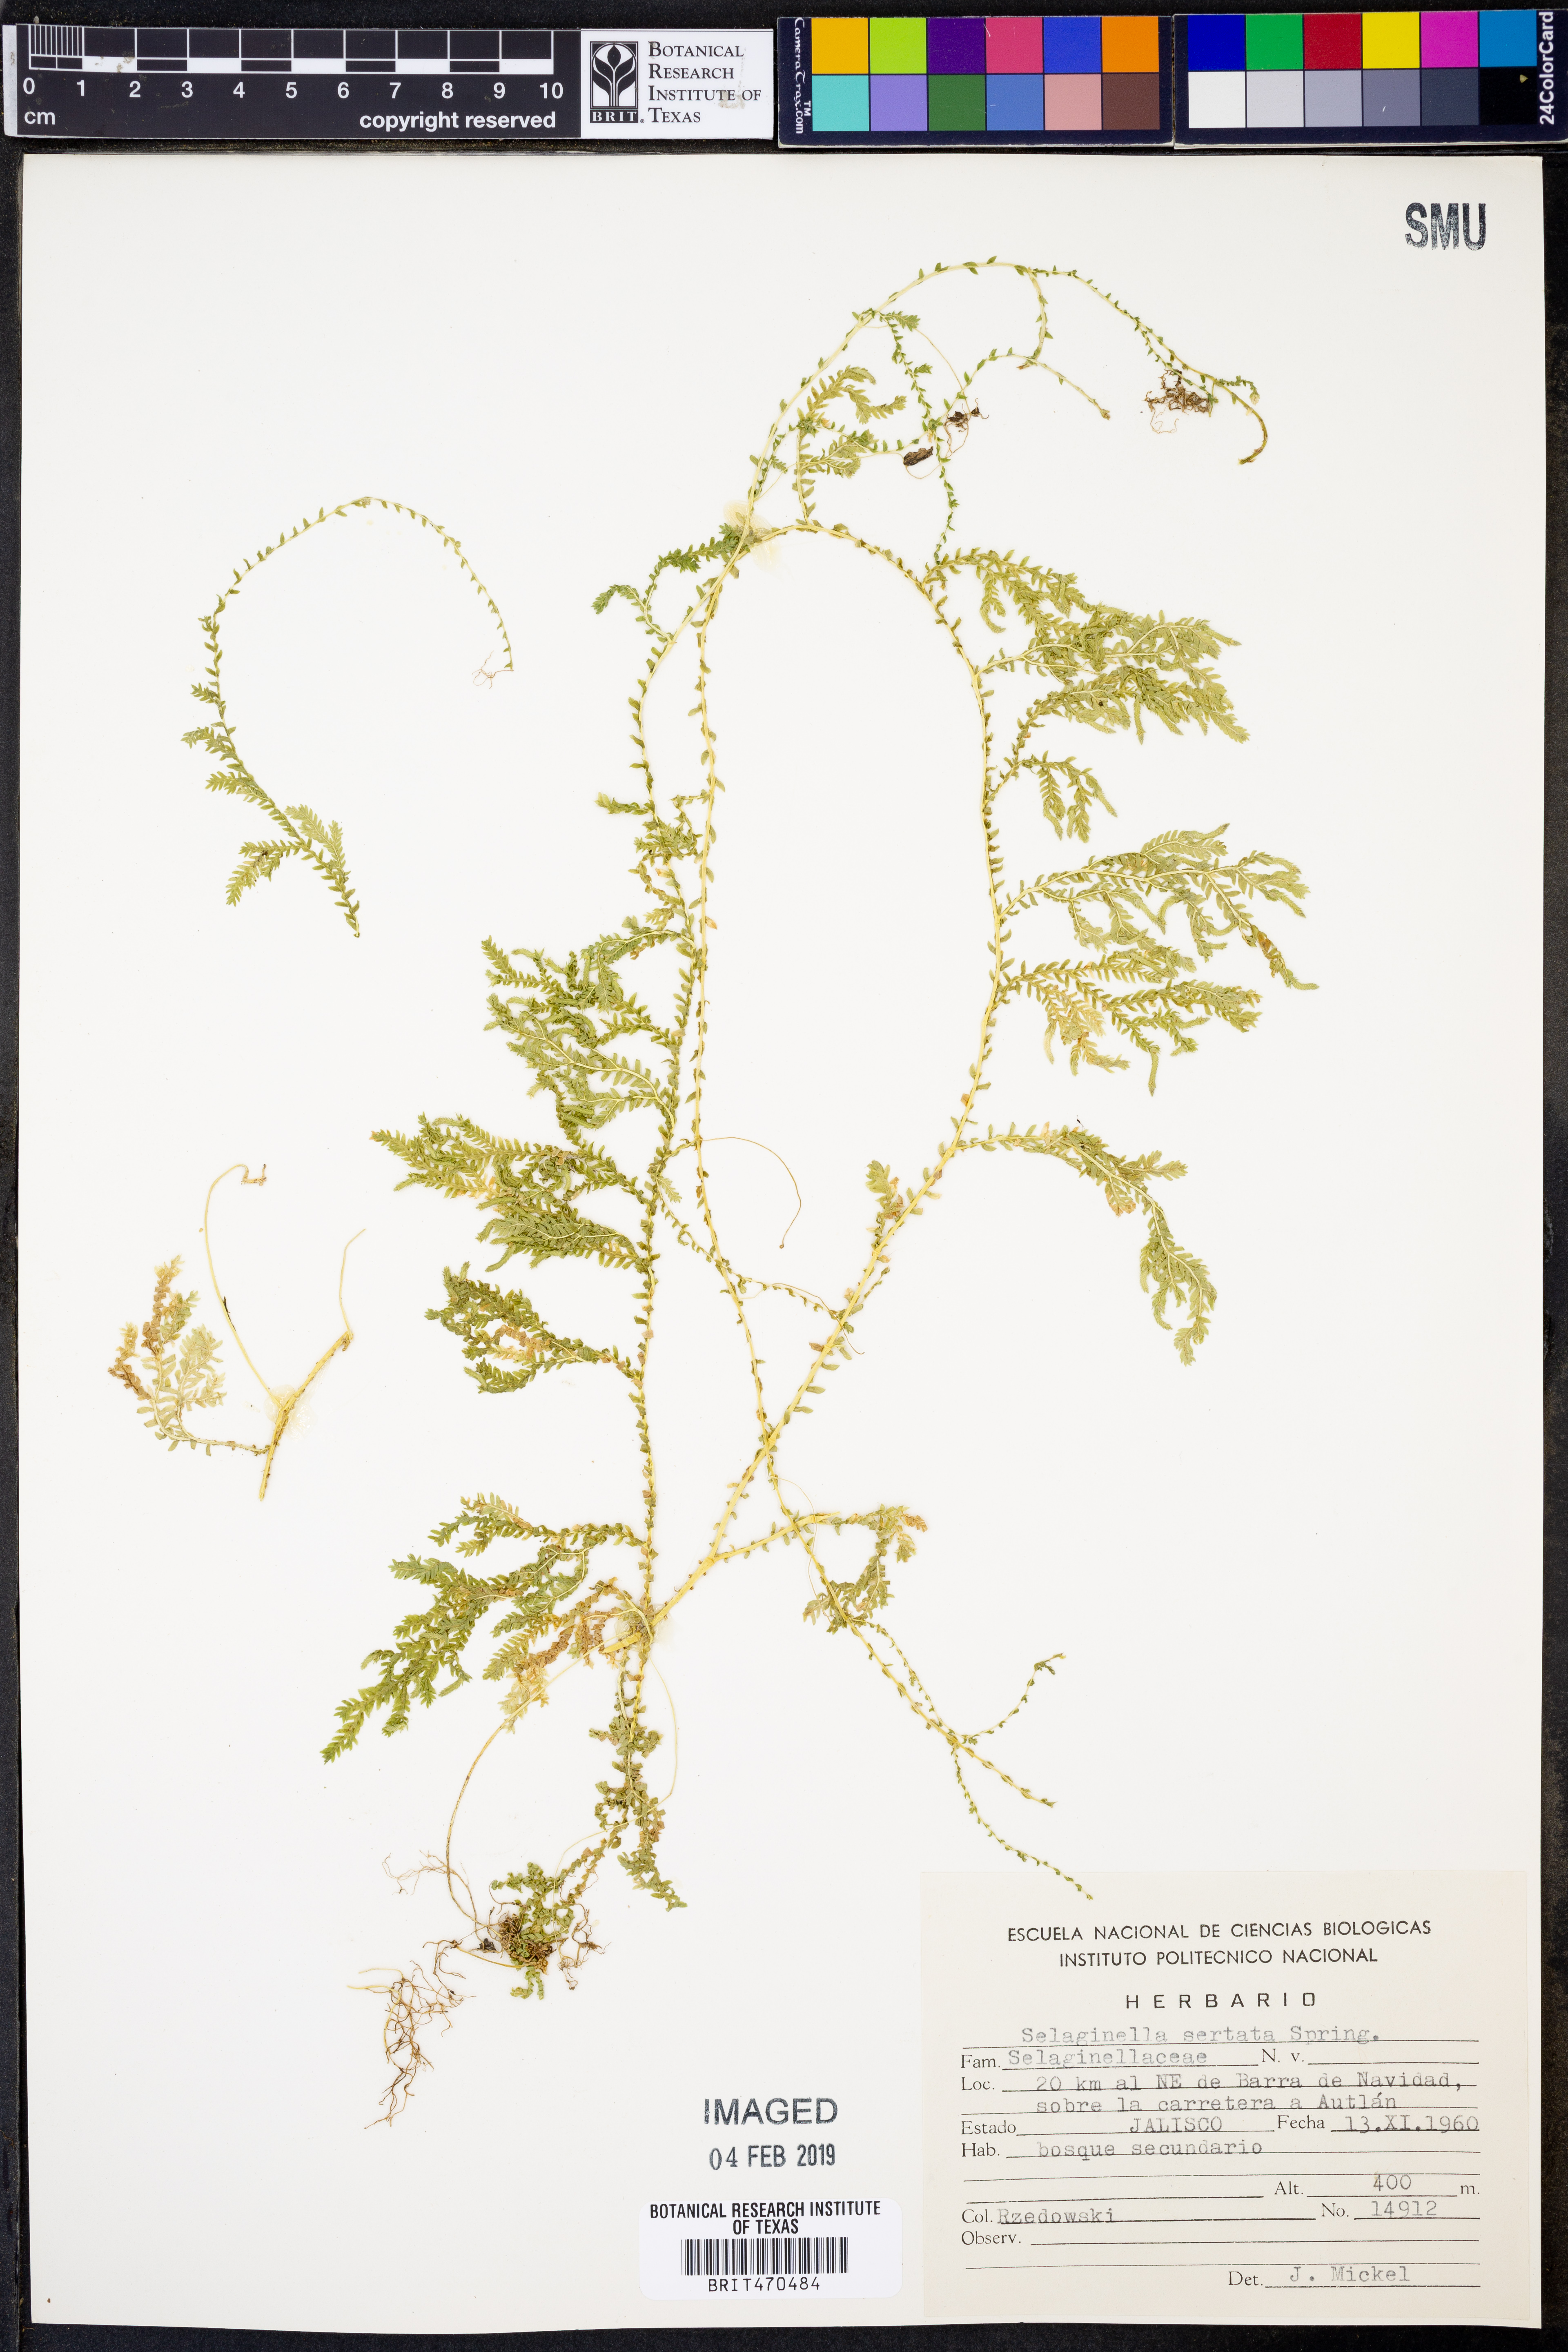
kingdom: Plantae
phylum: Tracheophyta
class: Lycopodiopsida
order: Selaginellales
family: Selaginellaceae
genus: Selaginella
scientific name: Selaginella sertata
